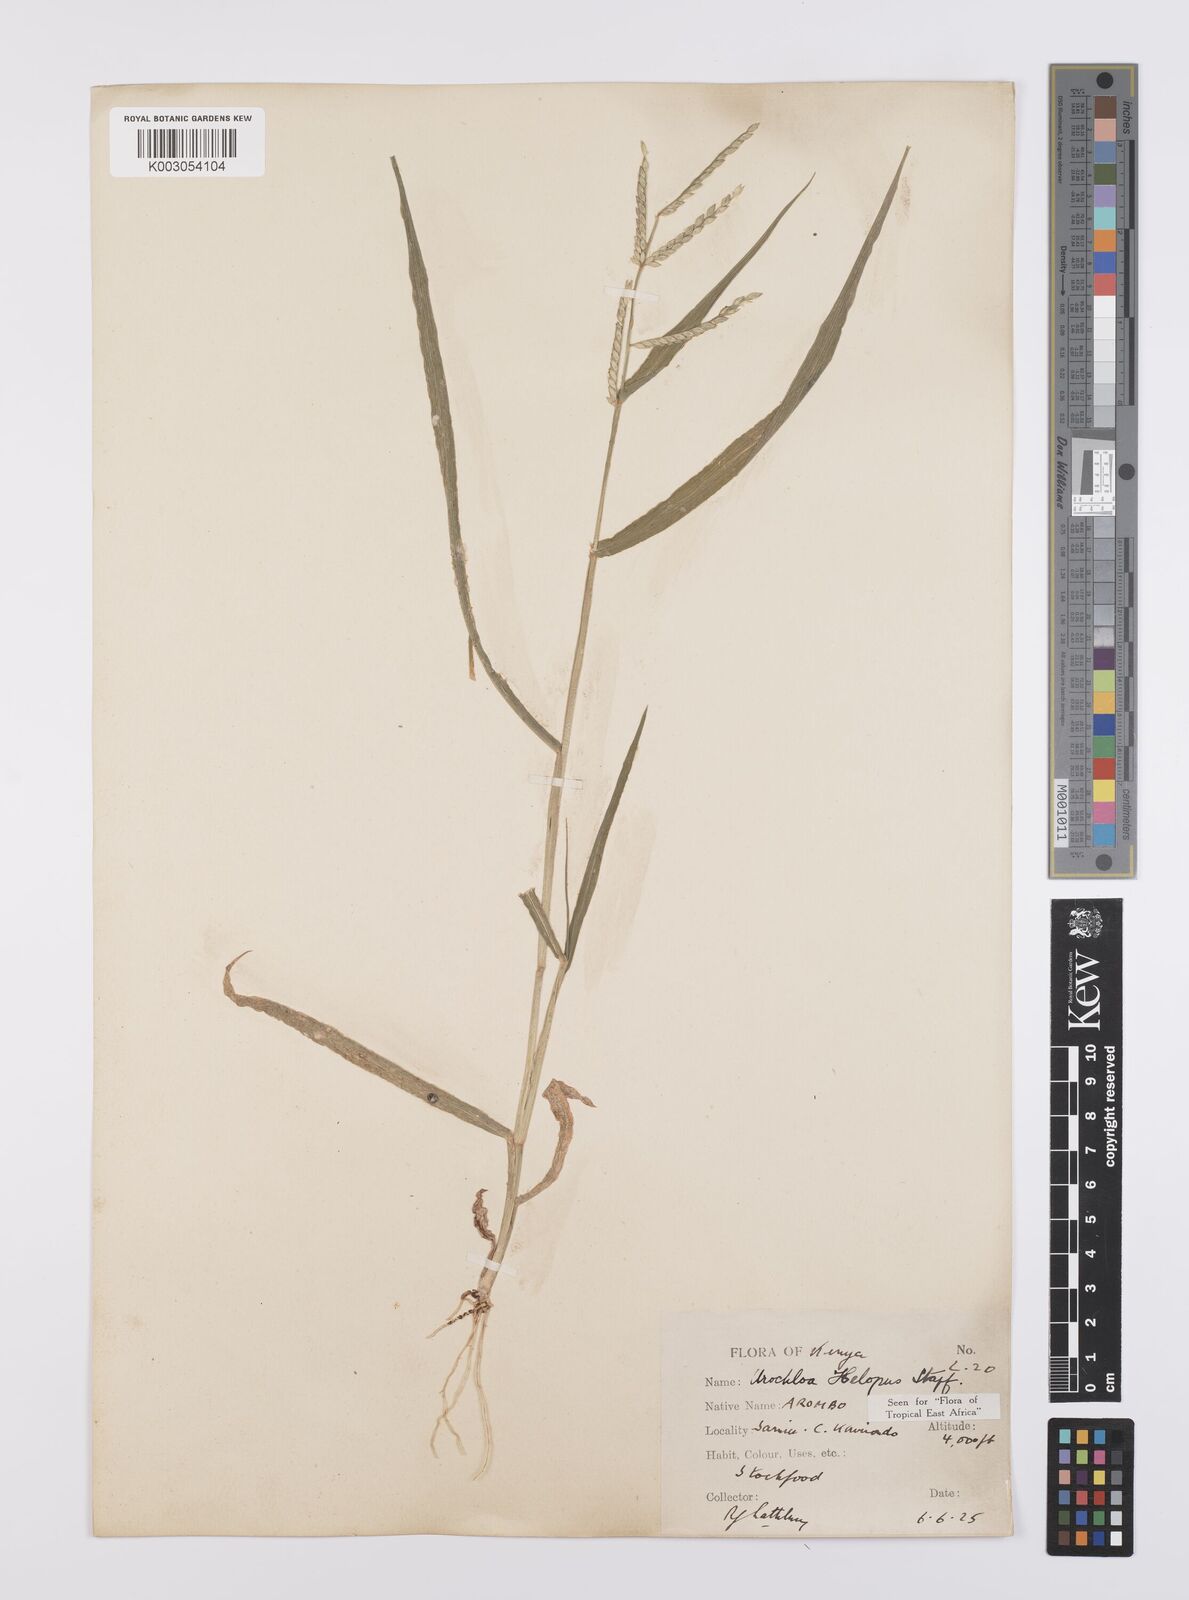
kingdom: Plantae
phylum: Tracheophyta
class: Liliopsida
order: Poales
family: Poaceae
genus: Urochloa
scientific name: Urochloa panicoides
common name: Sharp-flowered signal-grass
